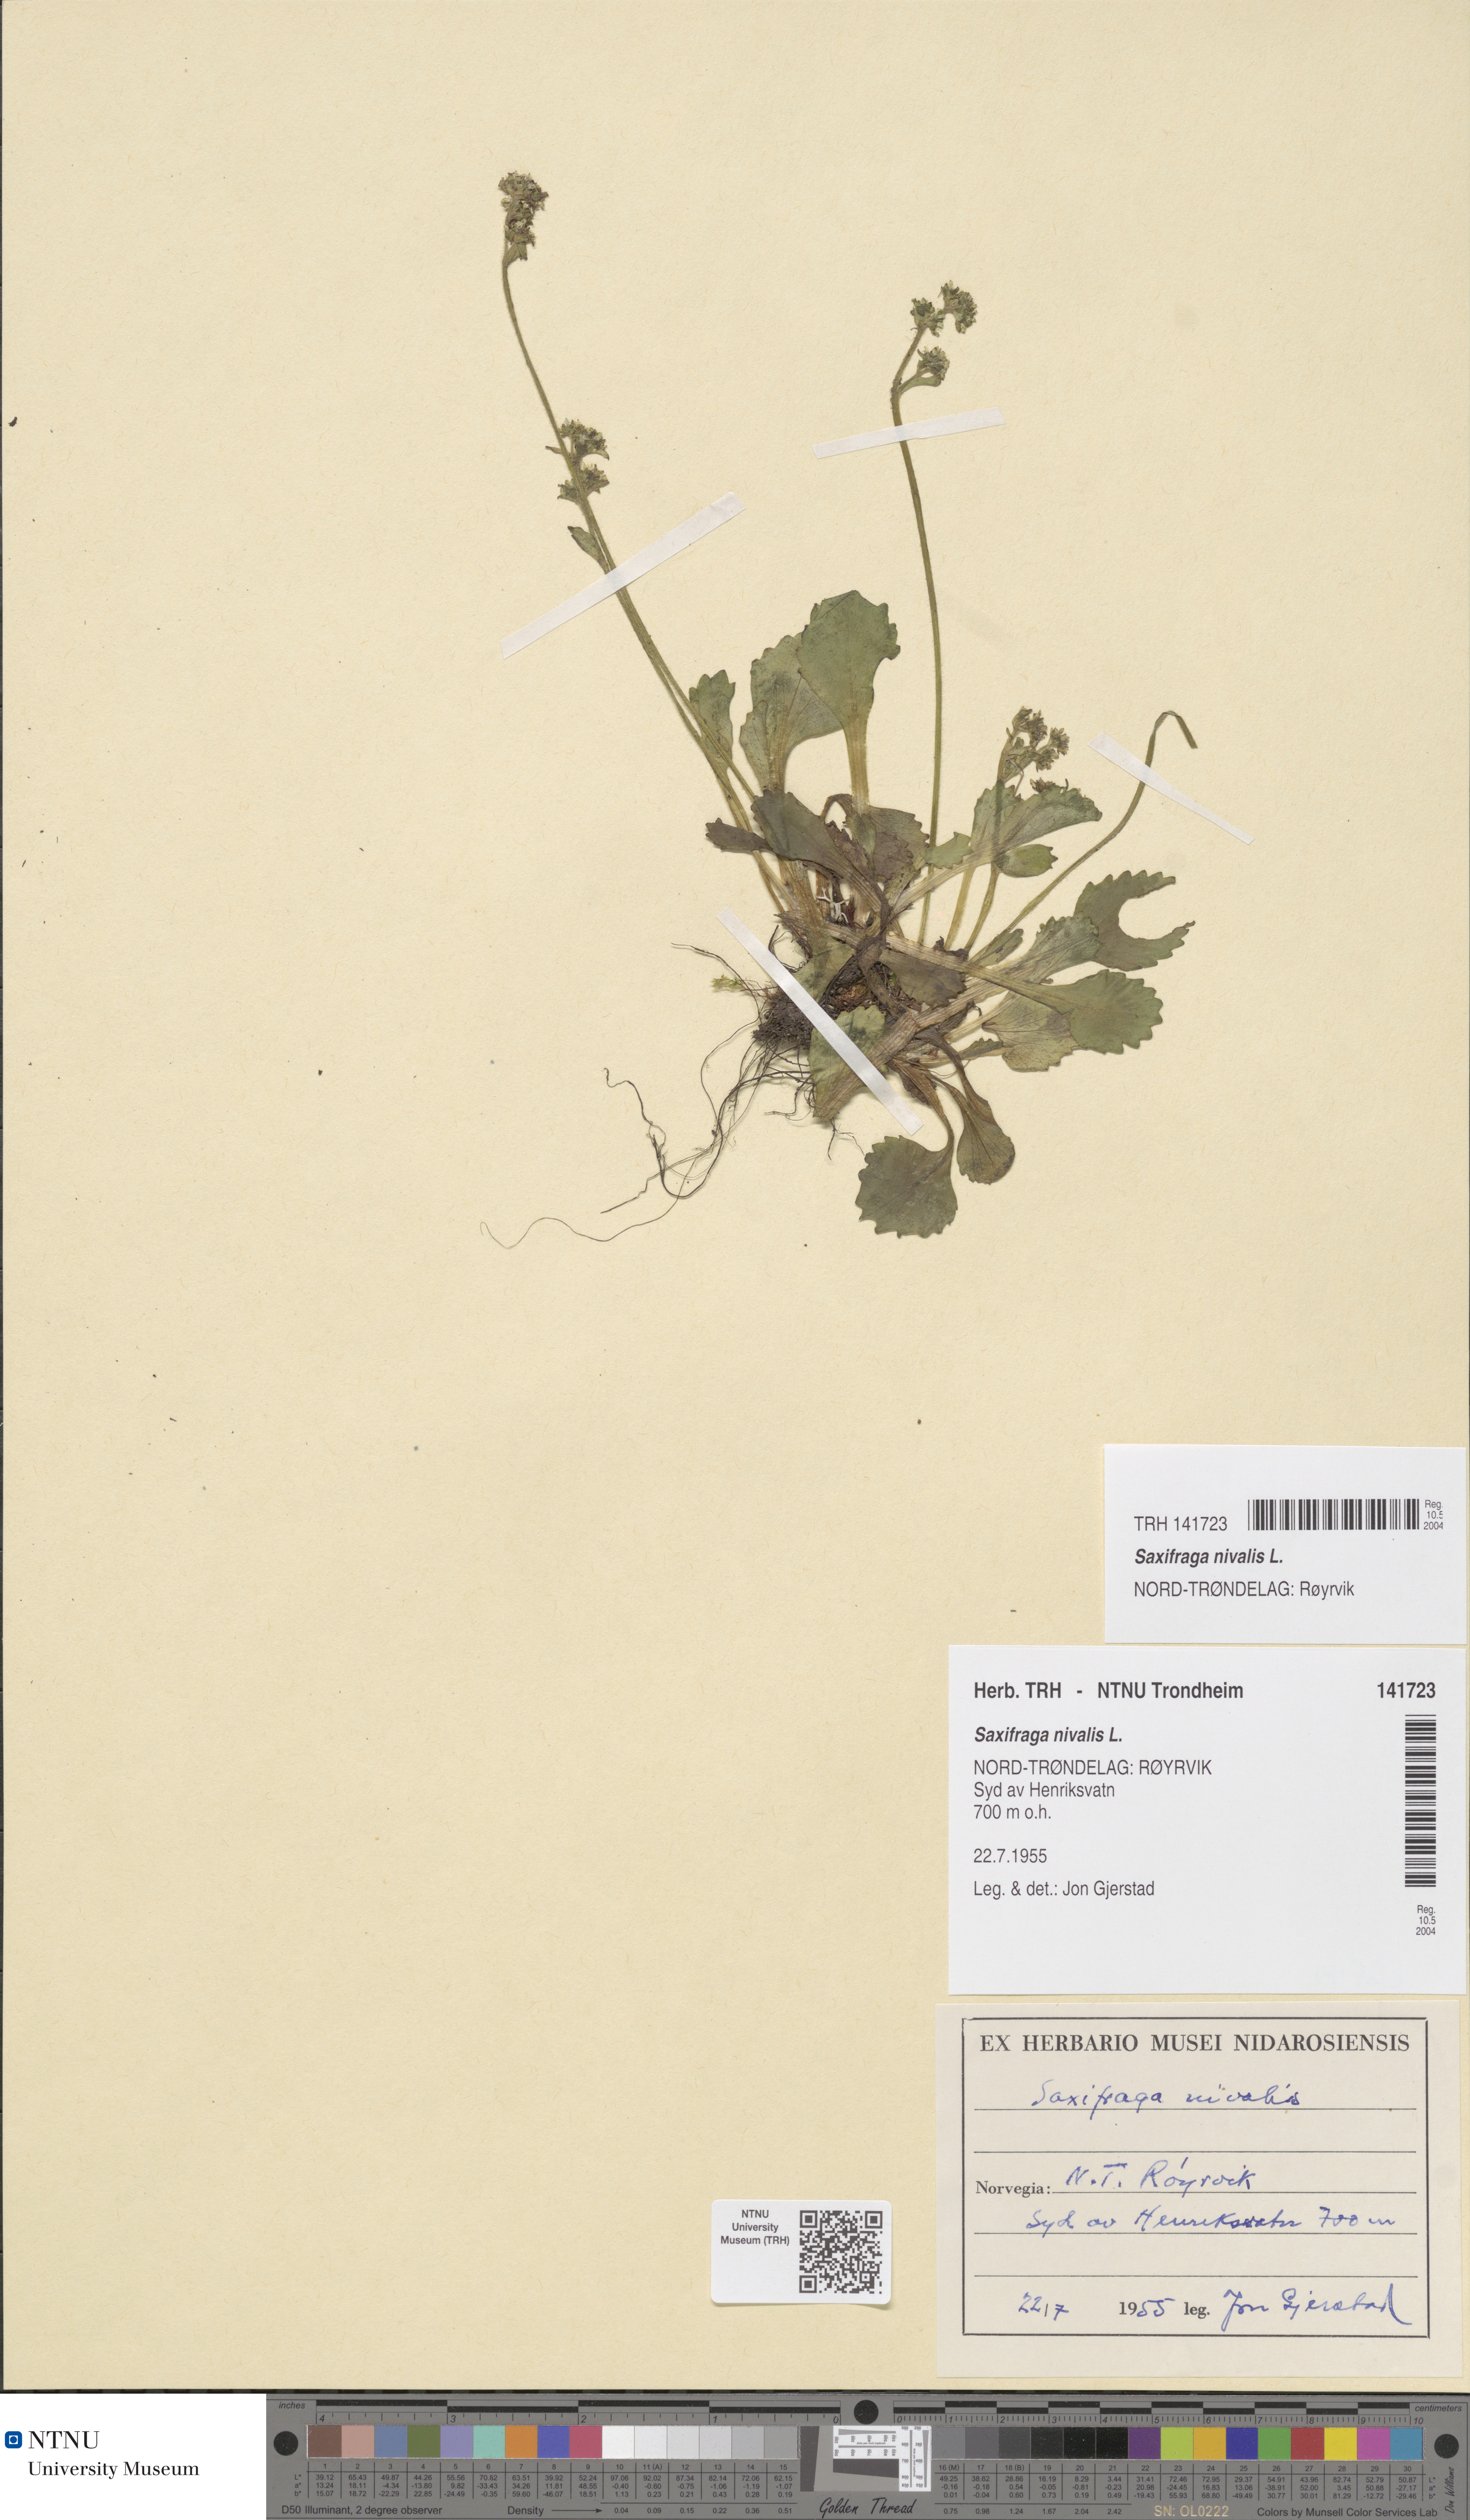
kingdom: Plantae
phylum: Tracheophyta
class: Magnoliopsida
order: Saxifragales
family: Saxifragaceae
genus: Micranthes
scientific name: Micranthes nivalis
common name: Alpine saxifrage
